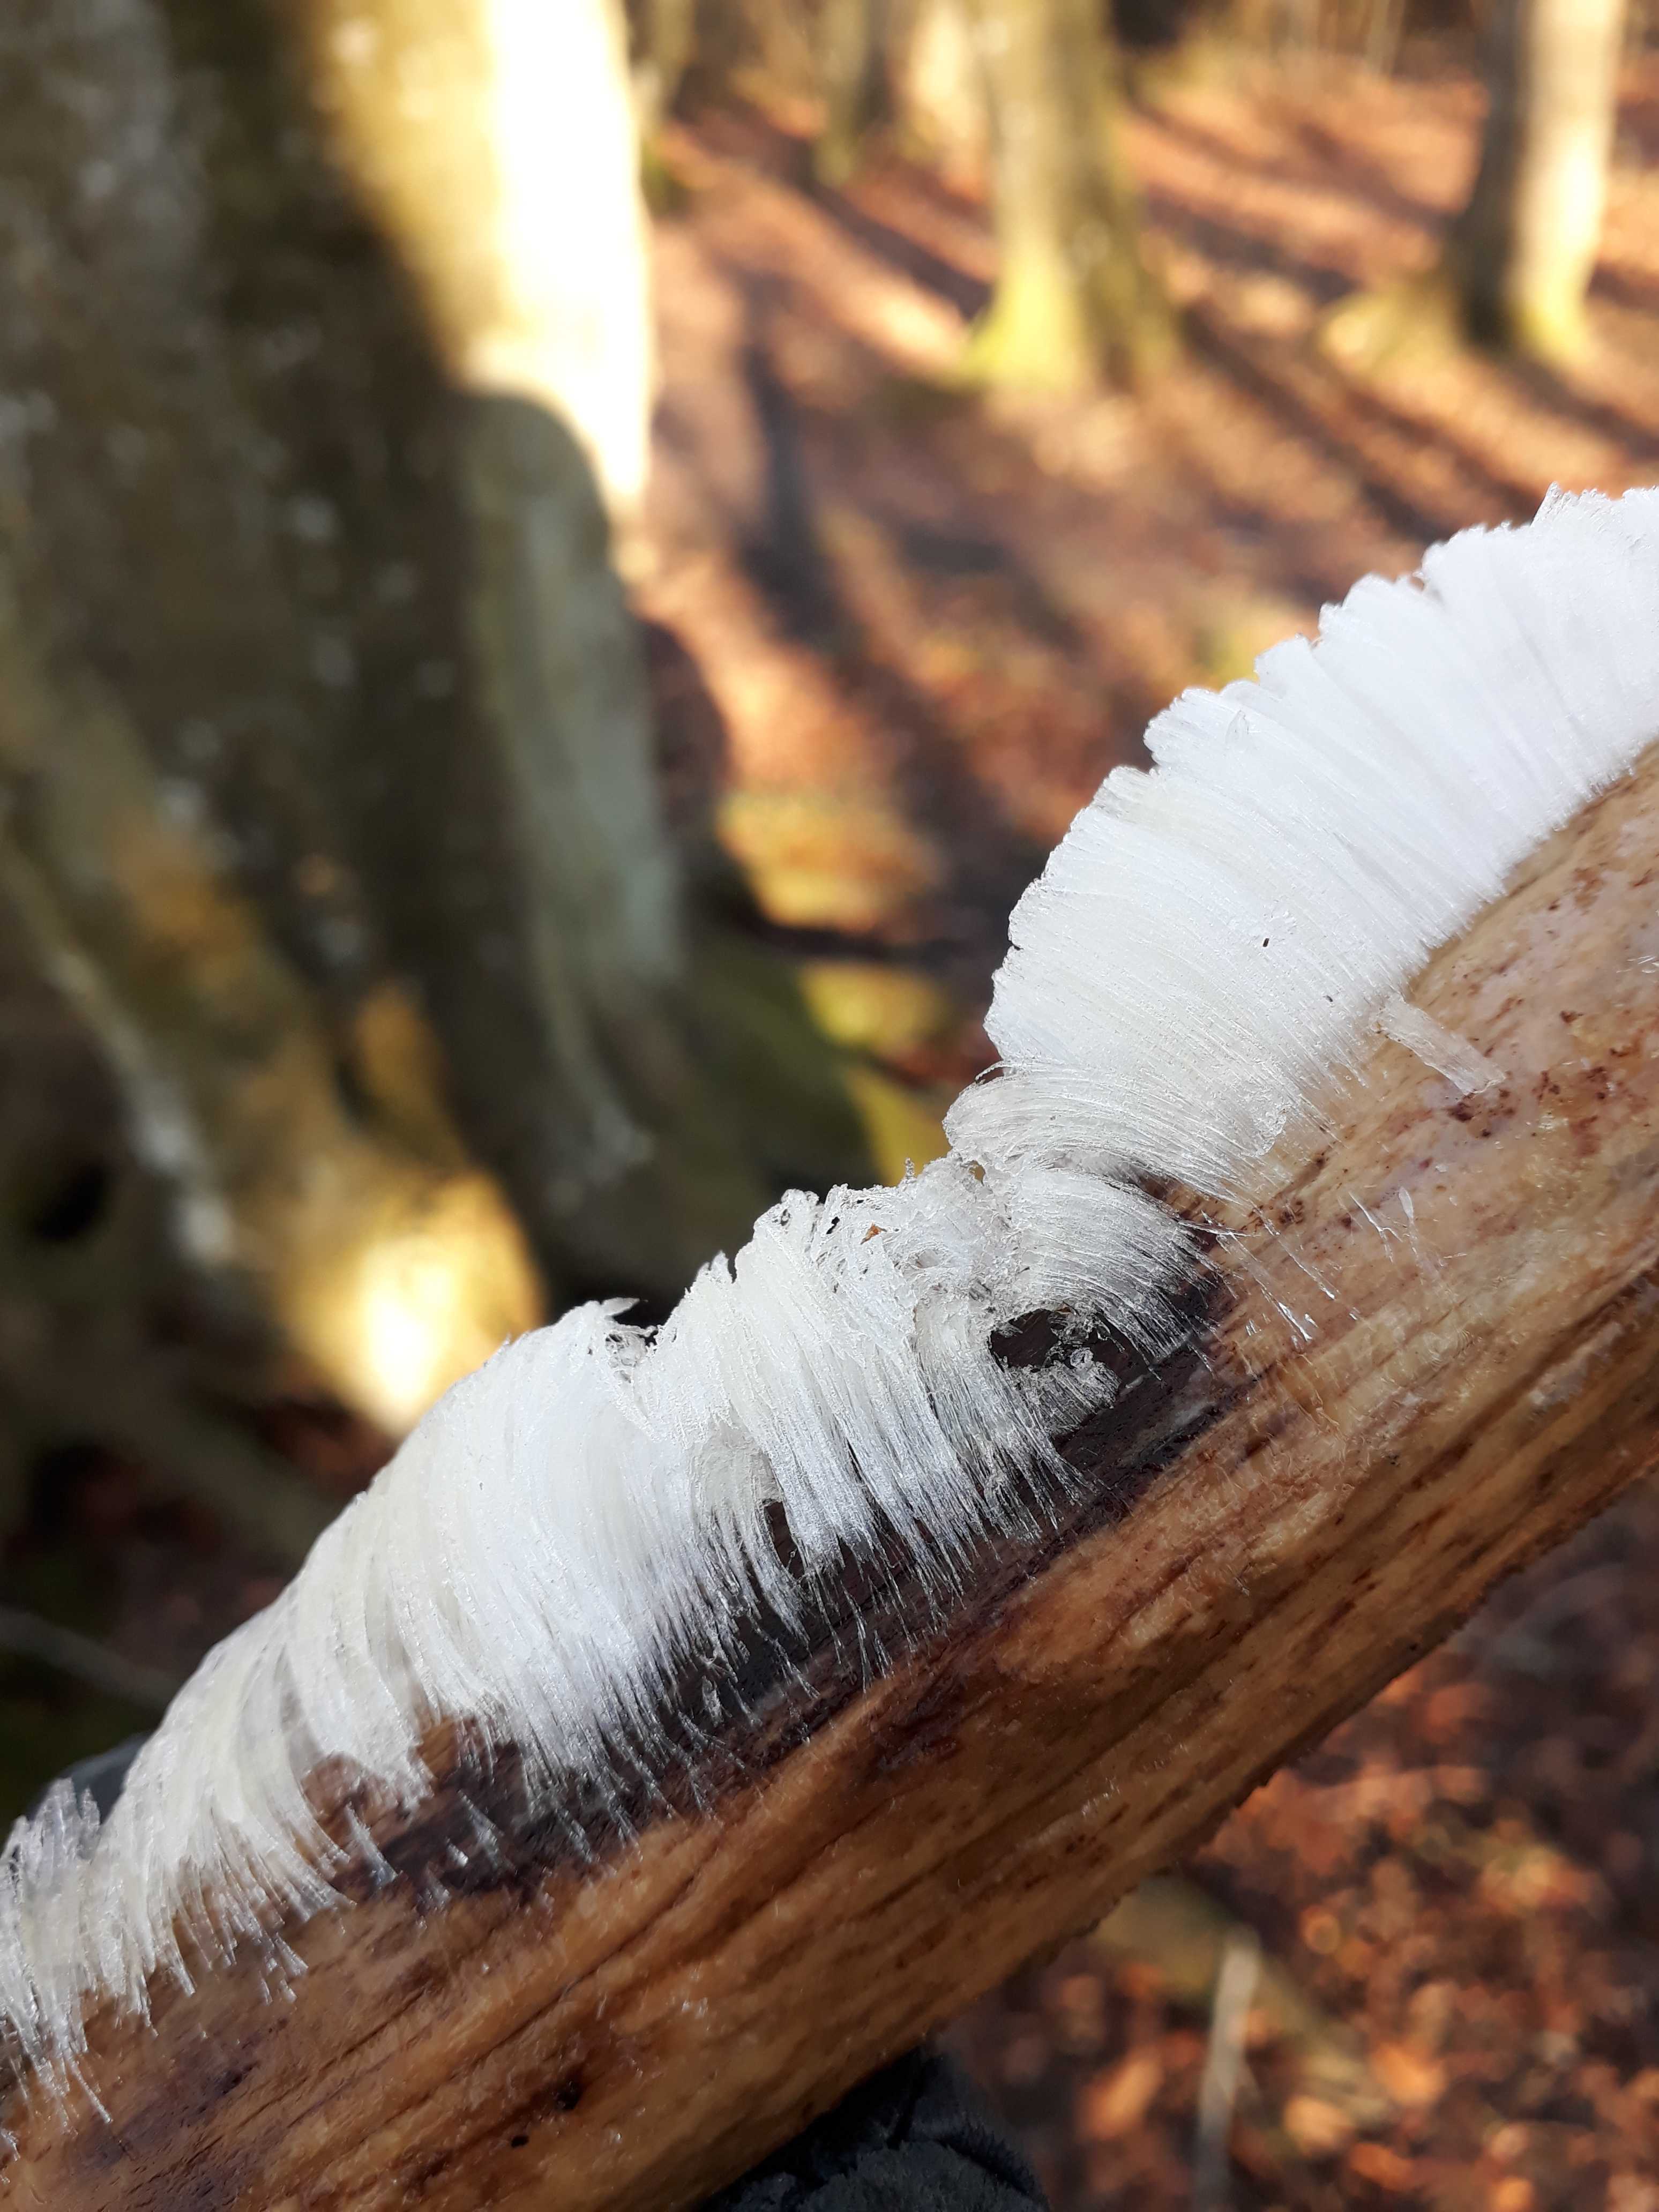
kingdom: Fungi
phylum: Basidiomycota
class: Tremellomycetes
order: Tremellales
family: Exidiaceae
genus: Exidiopsis
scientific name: Exidiopsis effusa
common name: smuk bævrehinde
